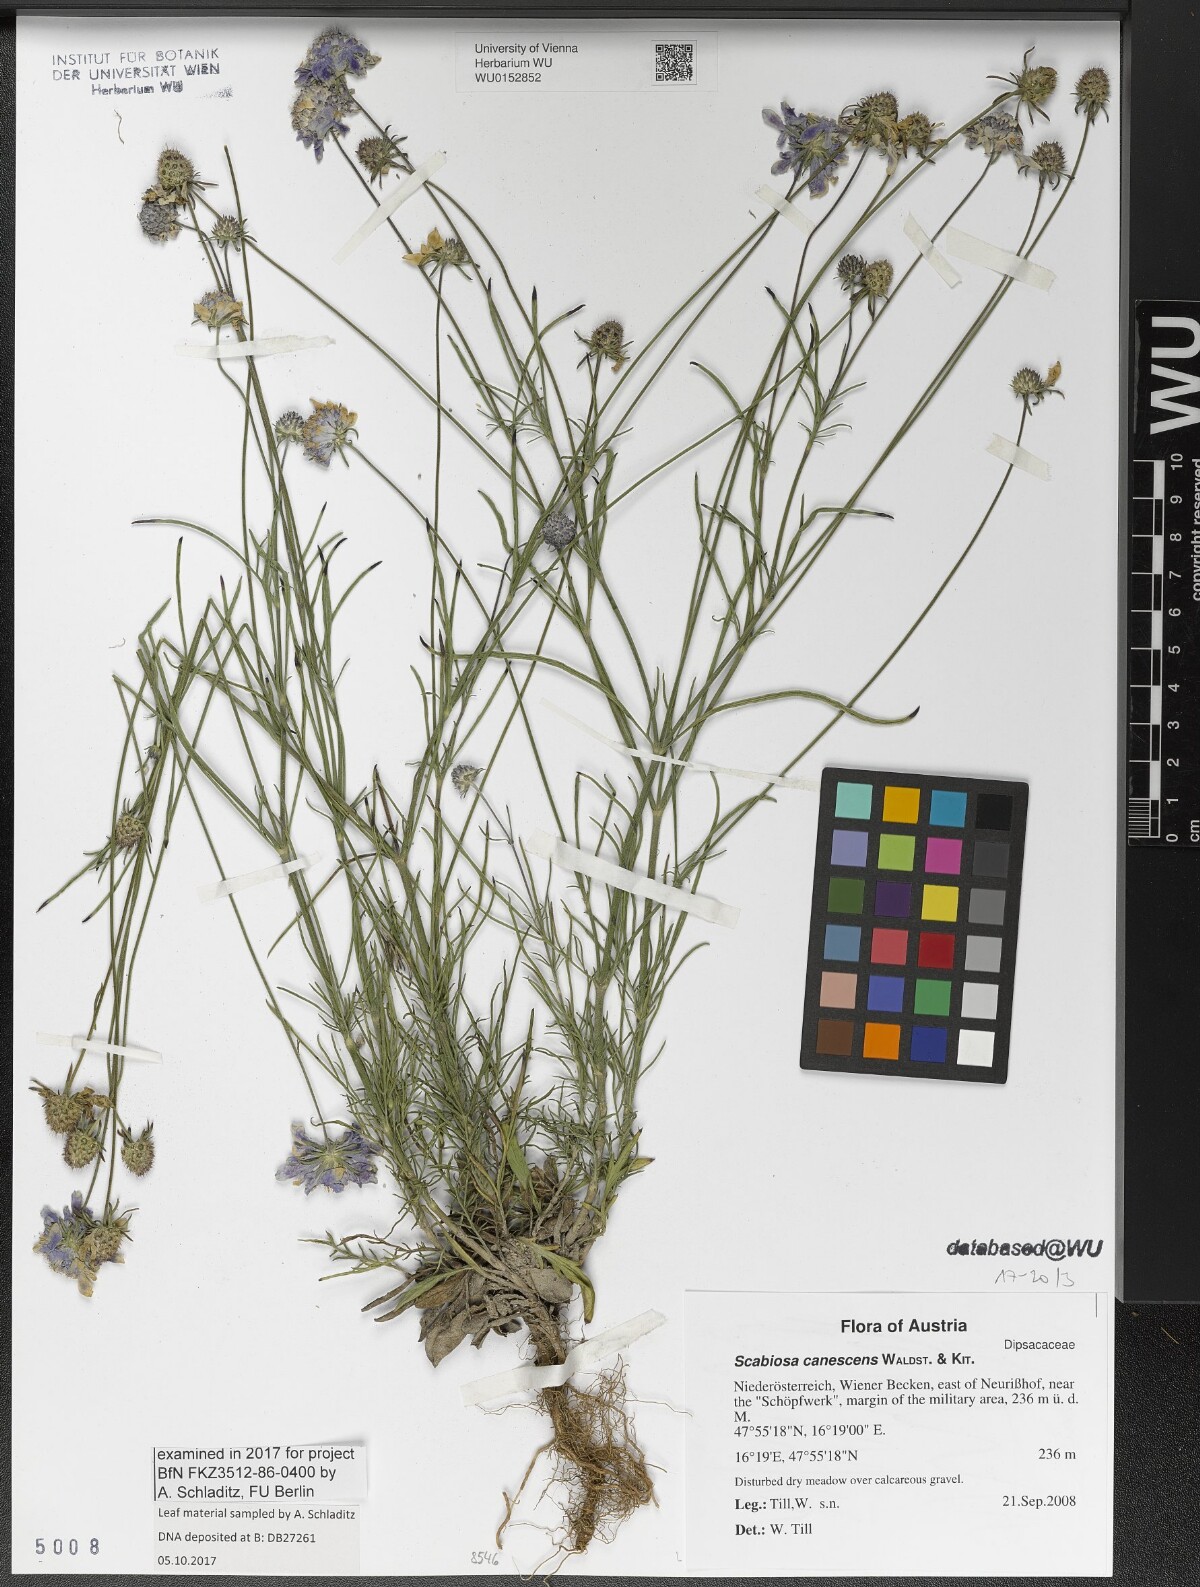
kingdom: Plantae
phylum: Tracheophyta
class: Magnoliopsida
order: Dipsacales
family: Caprifoliaceae
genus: Scabiosa
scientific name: Scabiosa canescens
